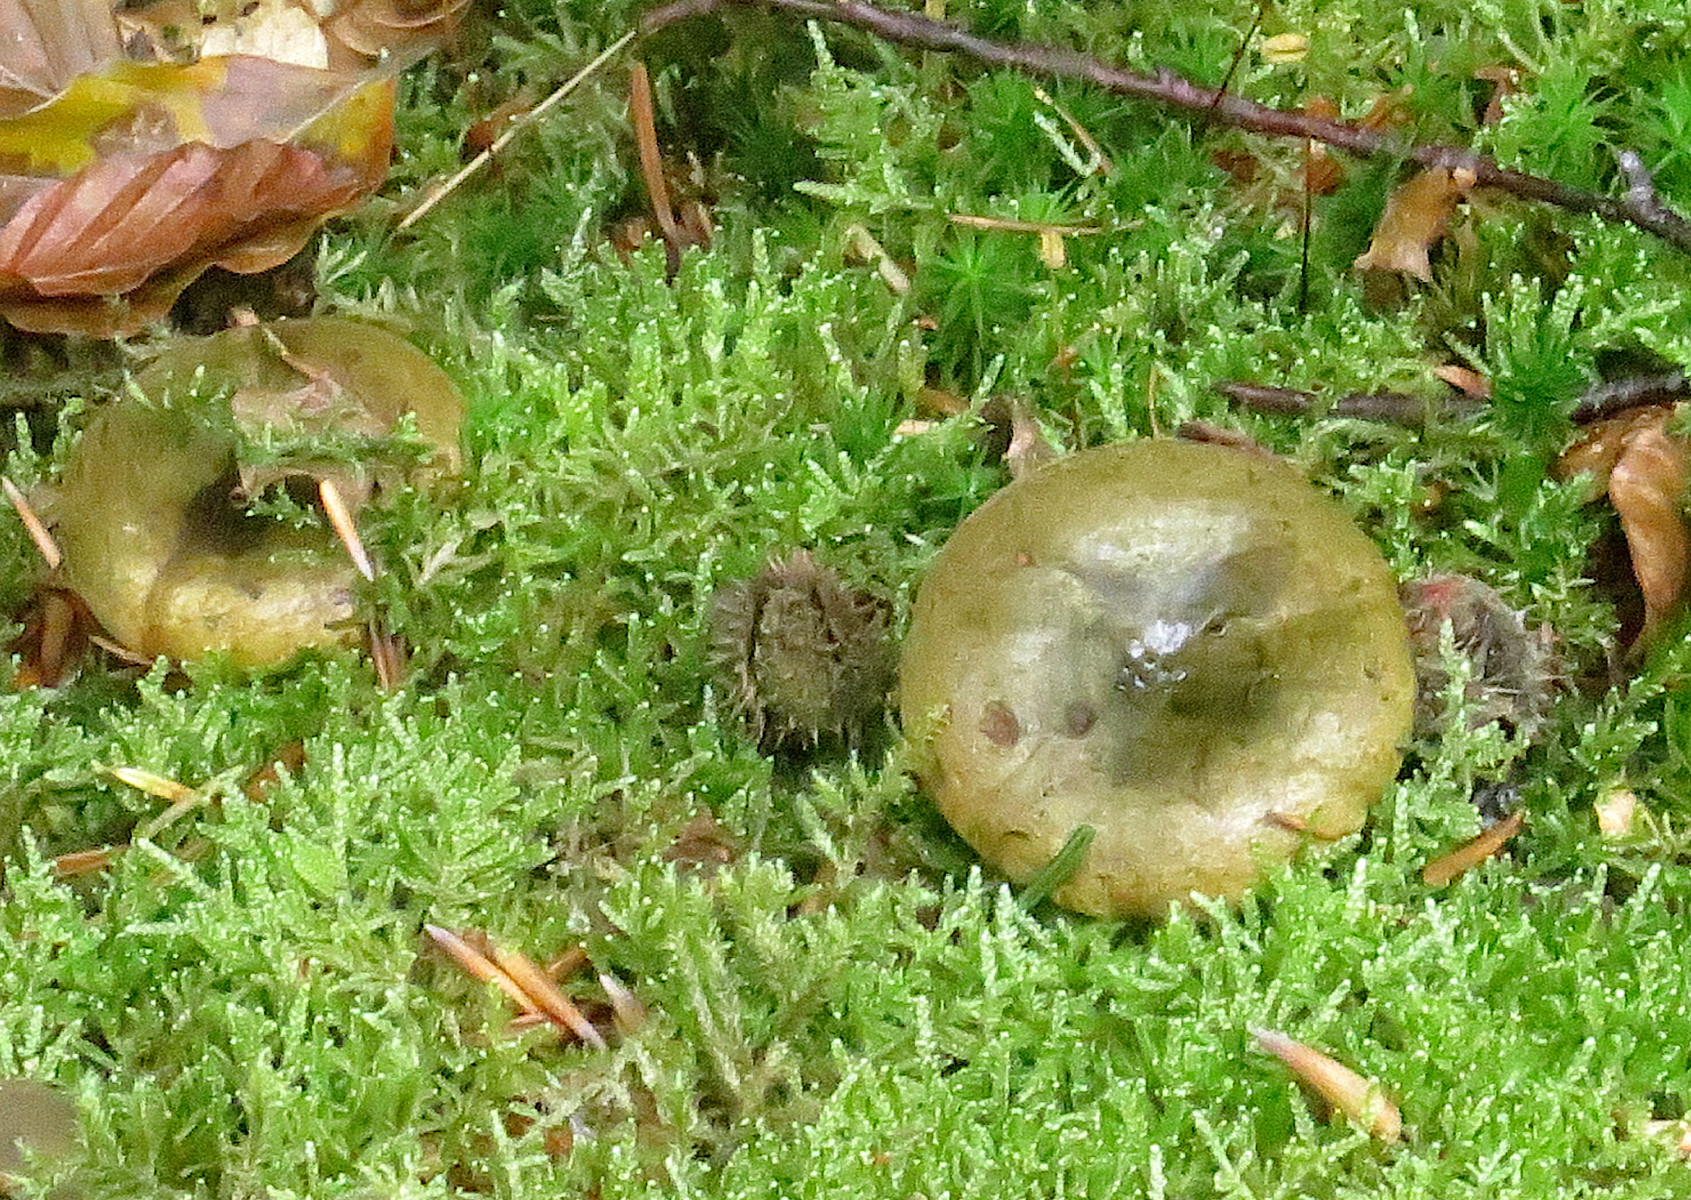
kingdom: Fungi
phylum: Basidiomycota
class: Agaricomycetes
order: Russulales
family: Russulaceae
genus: Lactarius
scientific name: Lactarius necator
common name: manddraber-mælkehat
